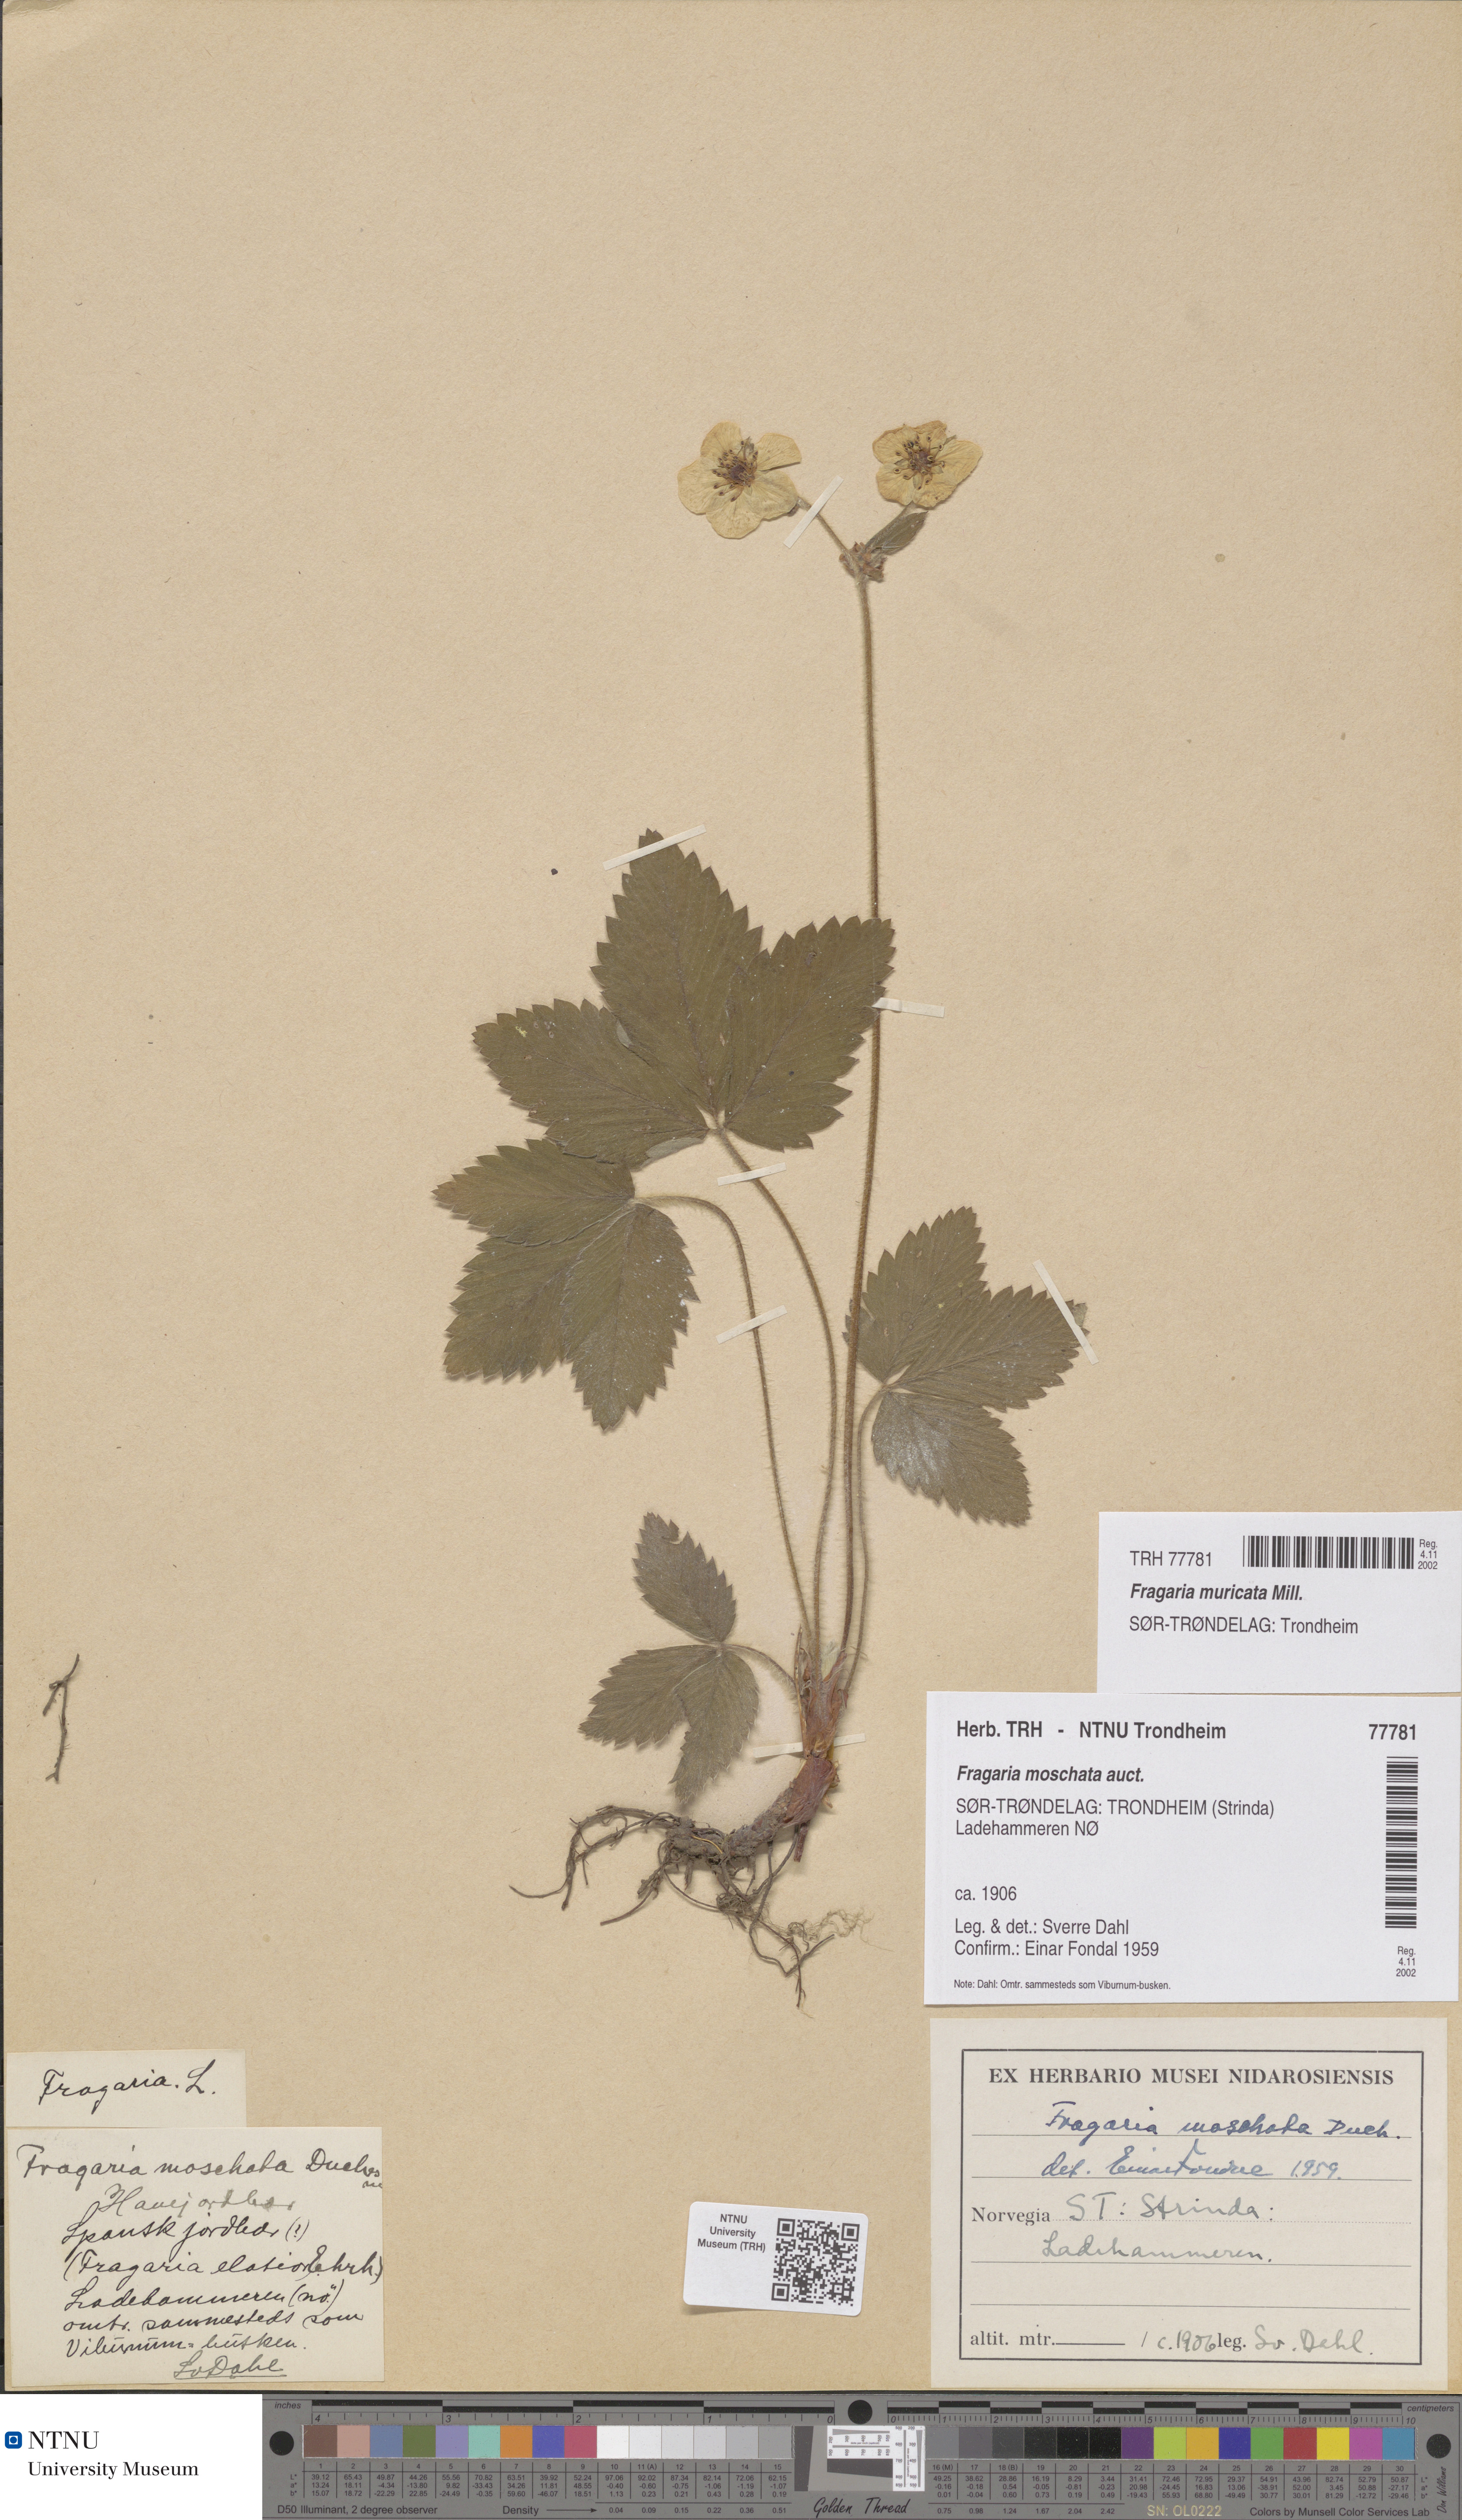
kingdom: Plantae
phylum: Tracheophyta
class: Magnoliopsida
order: Rosales
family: Rosaceae
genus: Fragaria
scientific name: Fragaria moschata
